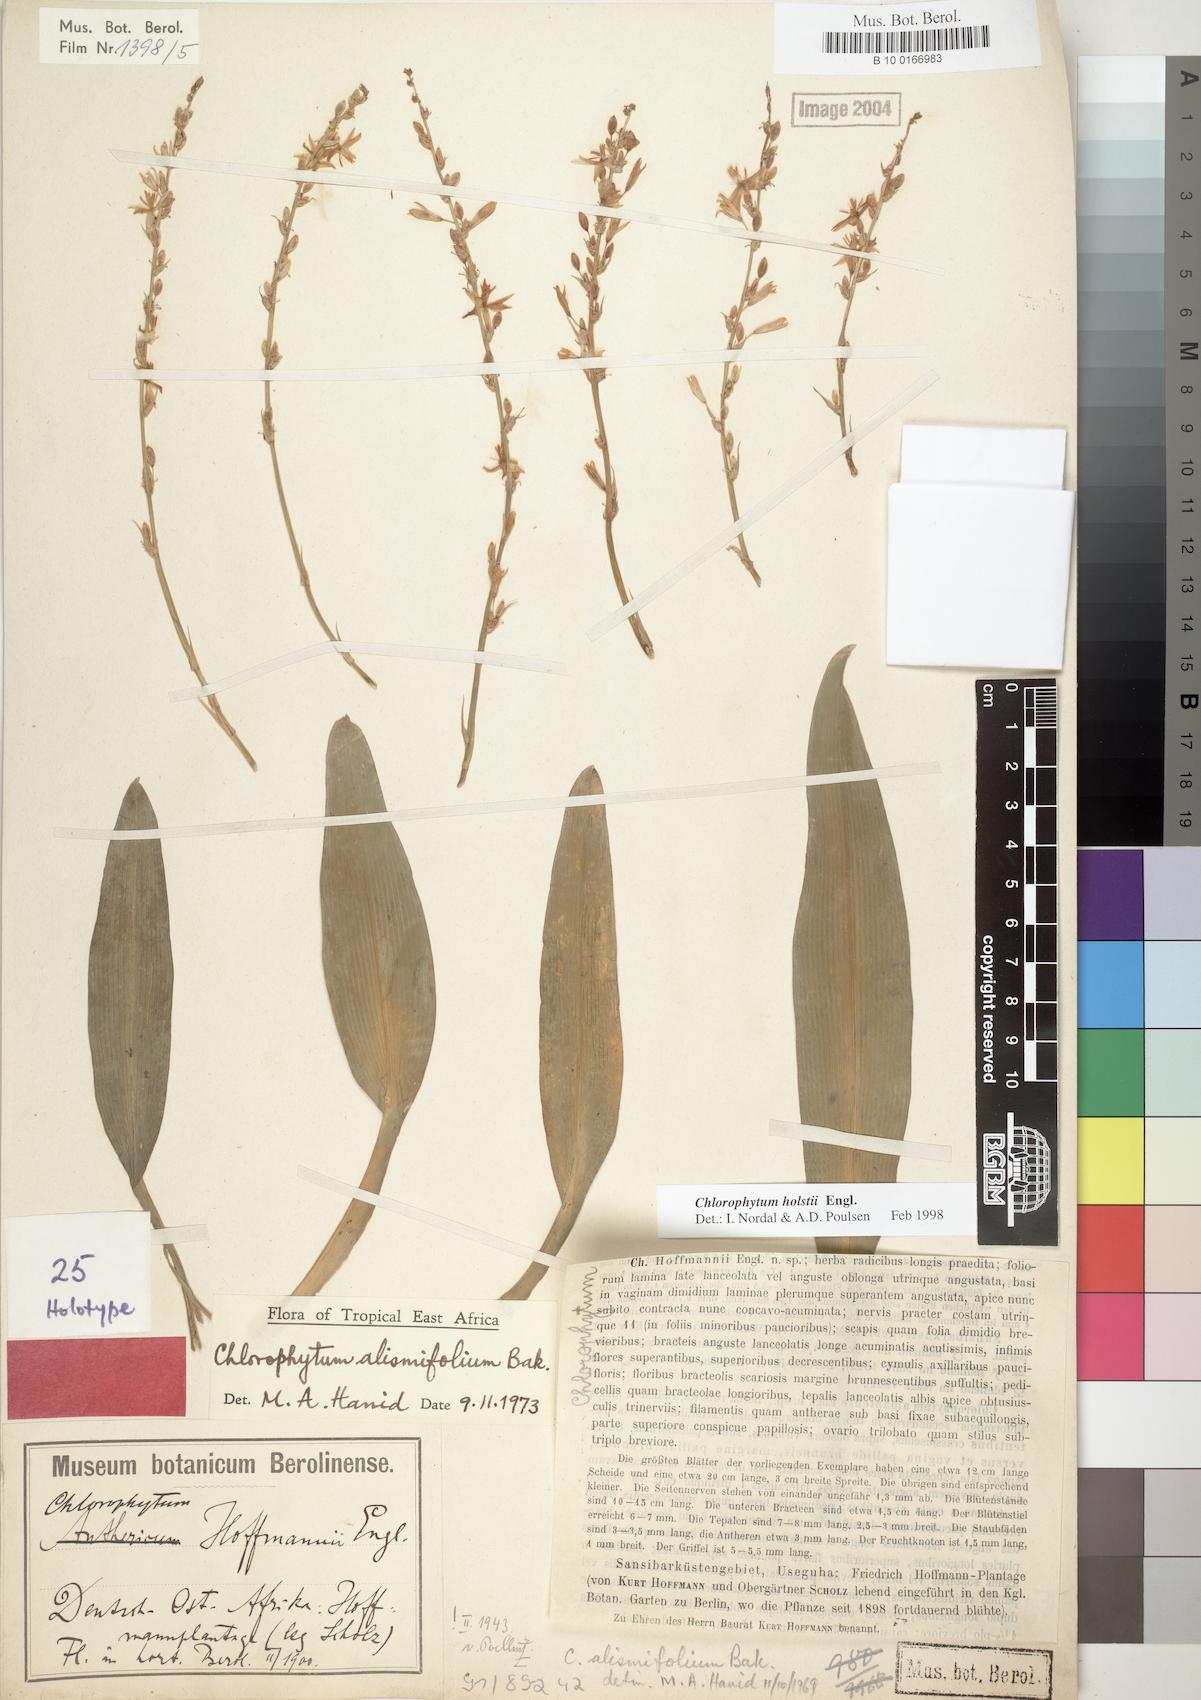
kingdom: Plantae
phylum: Tracheophyta
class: Liliopsida
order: Asparagales
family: Asparagaceae
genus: Chlorophytum
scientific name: Chlorophytum holstii
